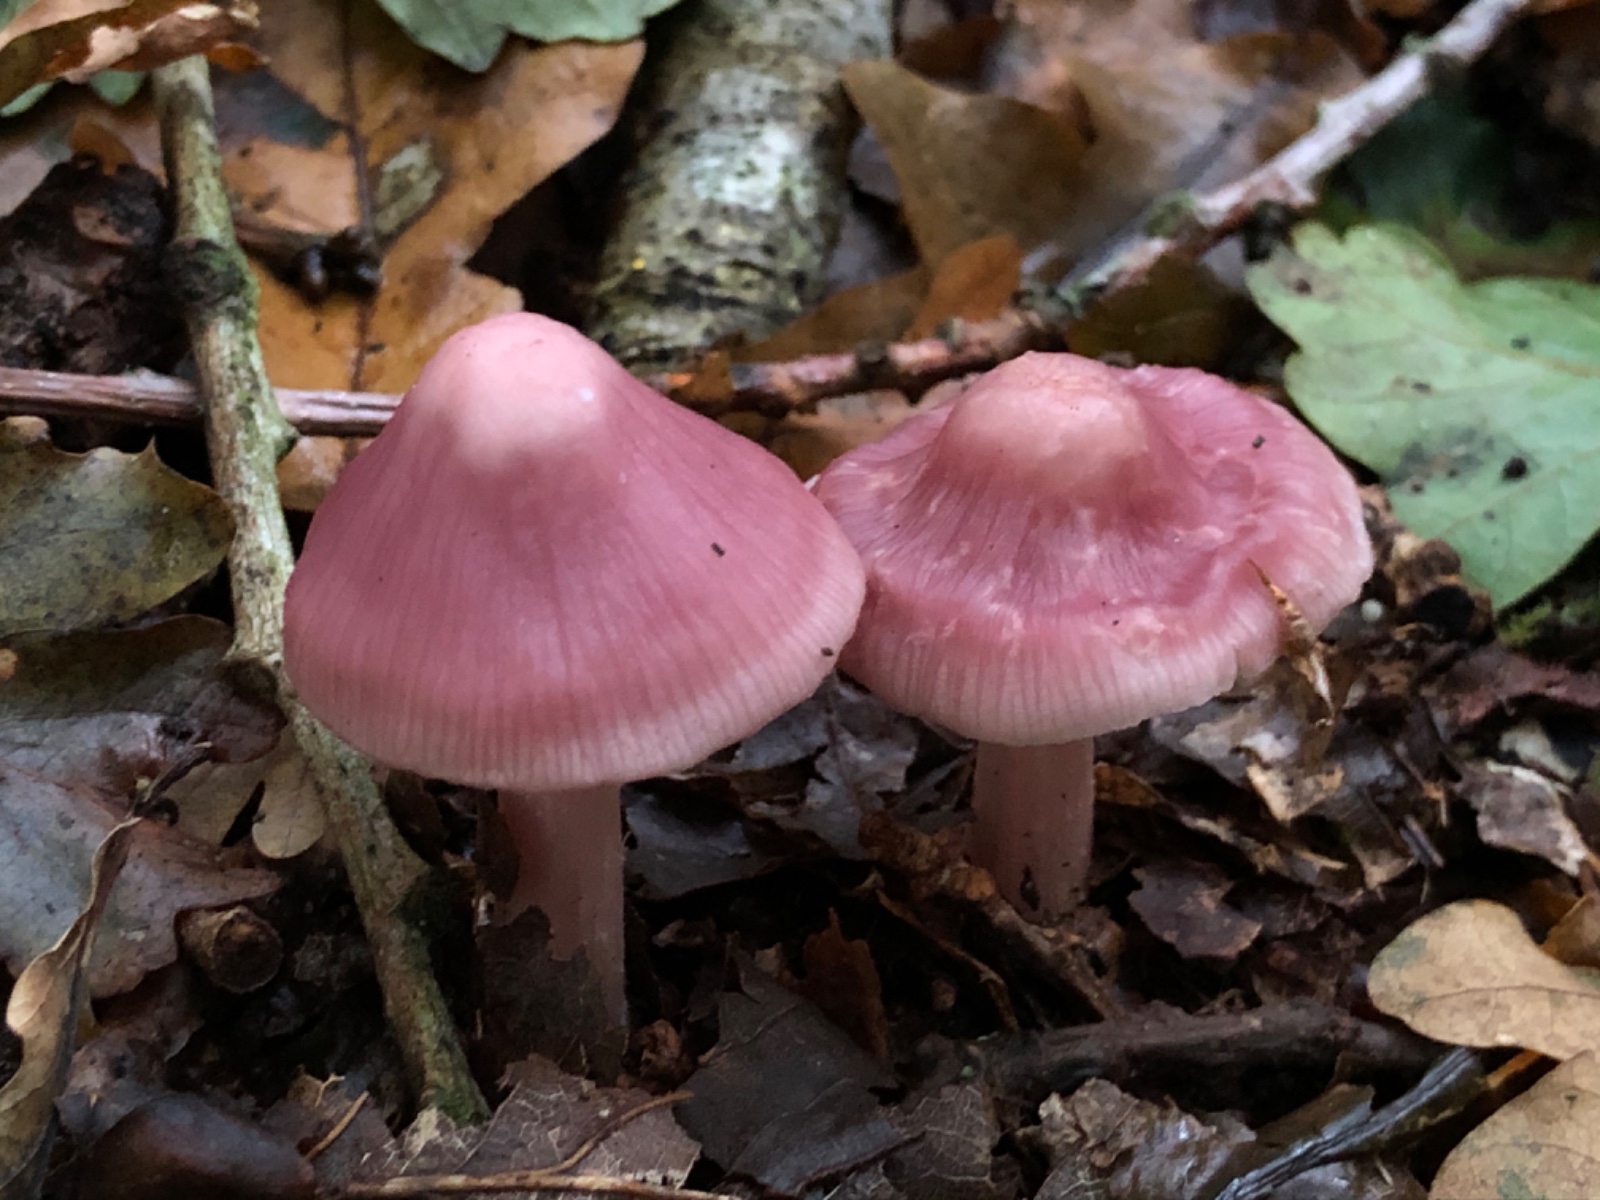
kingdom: Fungi
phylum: Basidiomycota
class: Agaricomycetes
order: Agaricales
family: Mycenaceae
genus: Mycena
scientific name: Mycena rosea
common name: rosa huesvamp
